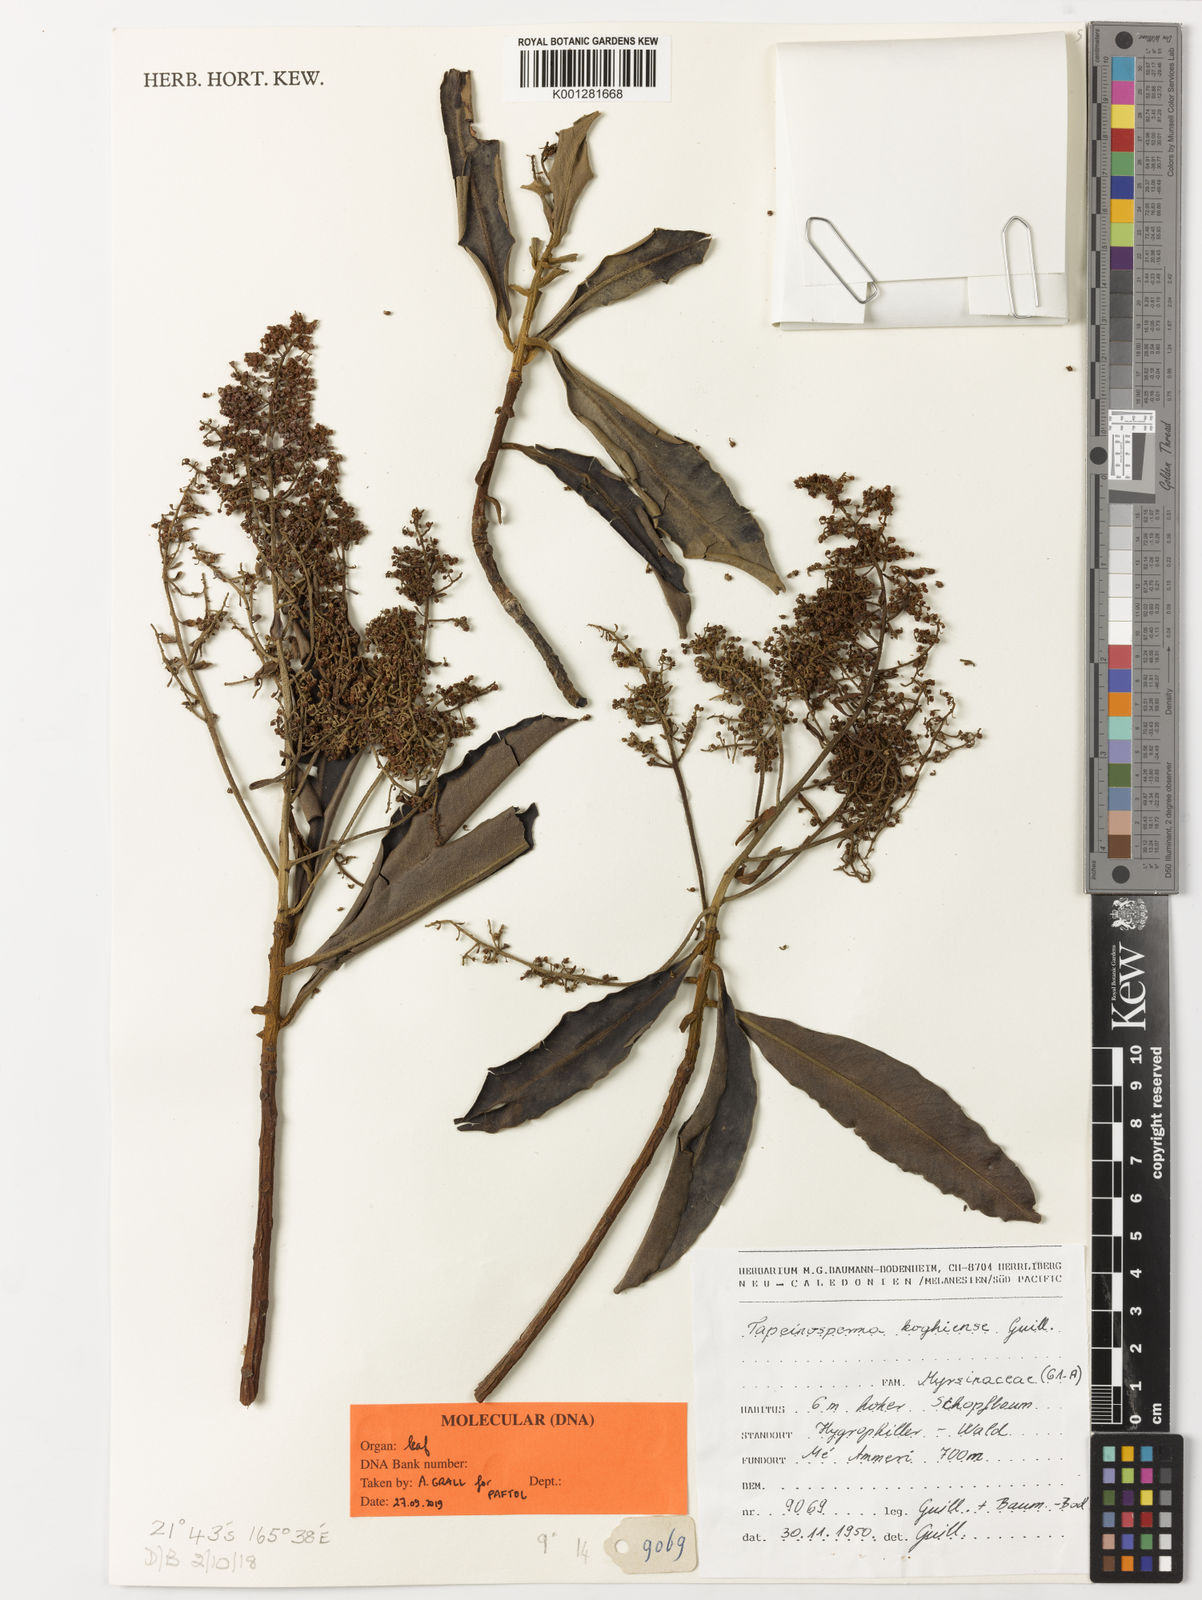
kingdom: Plantae
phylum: Tracheophyta
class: Magnoliopsida
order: Ericales
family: Primulaceae
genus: Tapeinosperma
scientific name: Tapeinosperma koghiense
